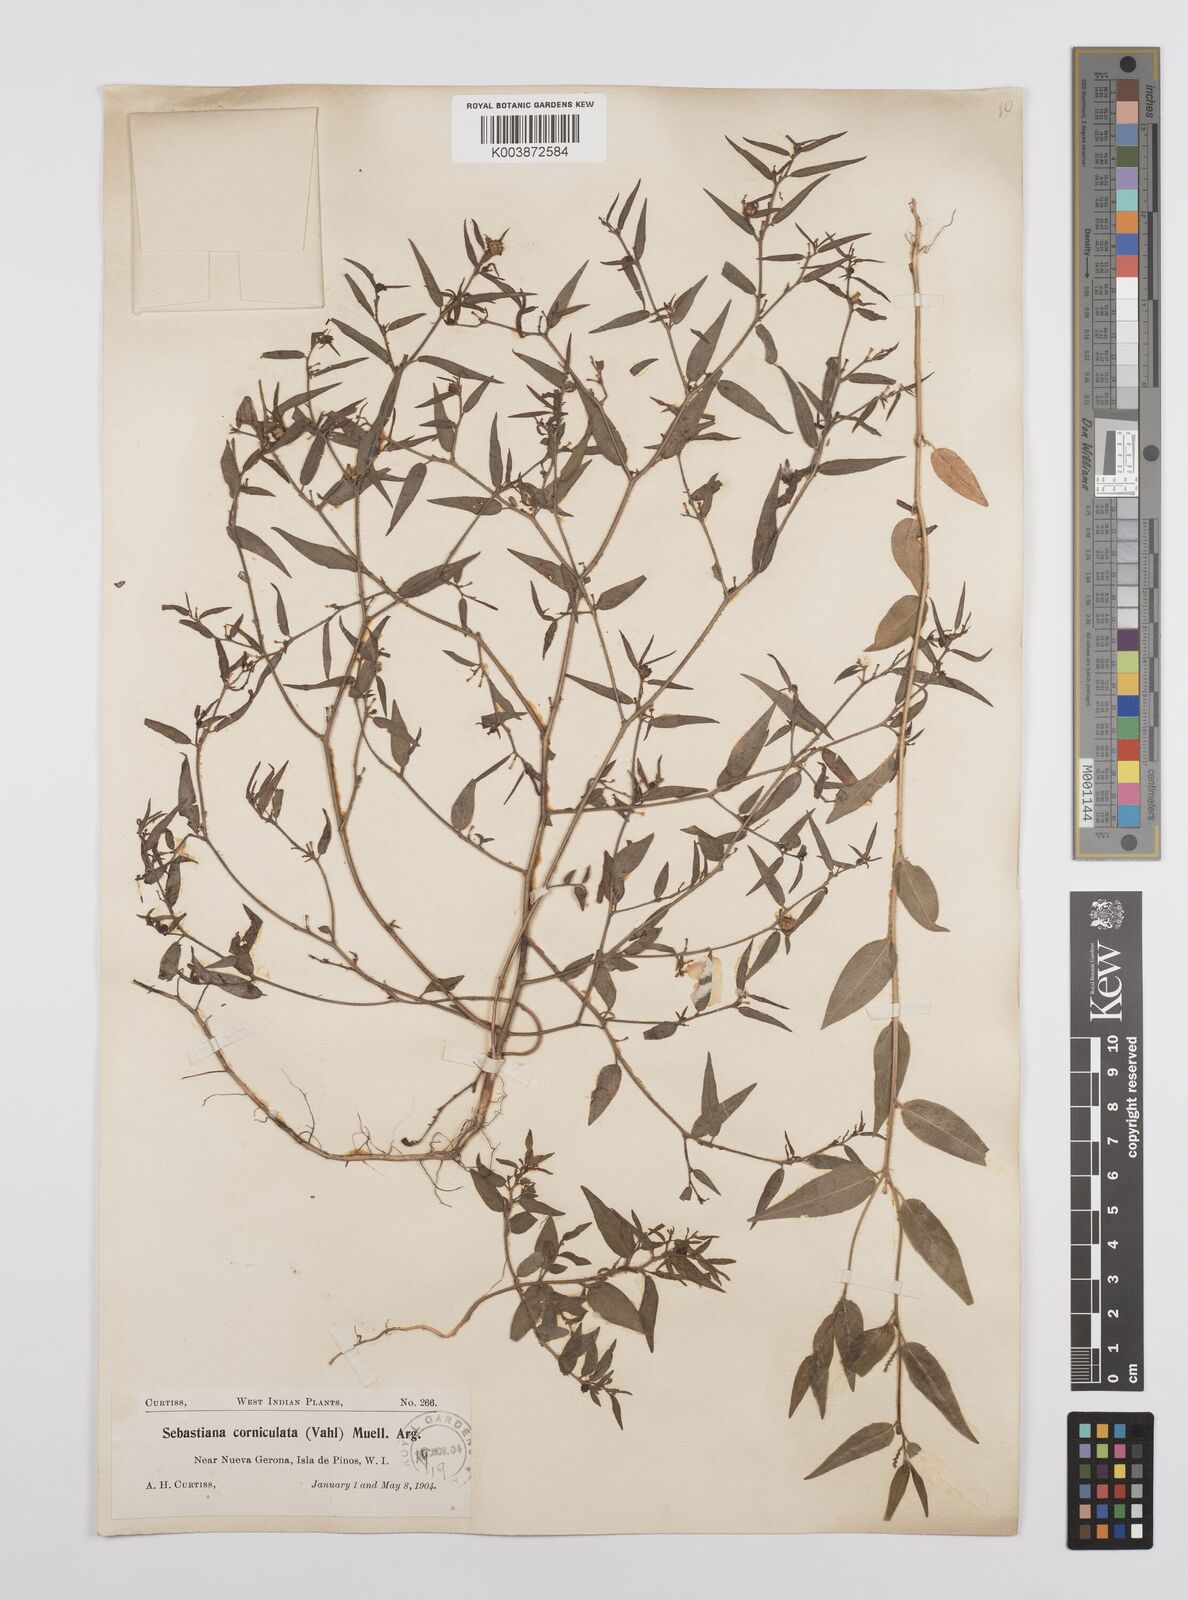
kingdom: Plantae
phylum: Tracheophyta
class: Magnoliopsida
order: Malpighiales
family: Euphorbiaceae
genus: Microstachys
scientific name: Microstachys corniculata
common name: Hato tejas
